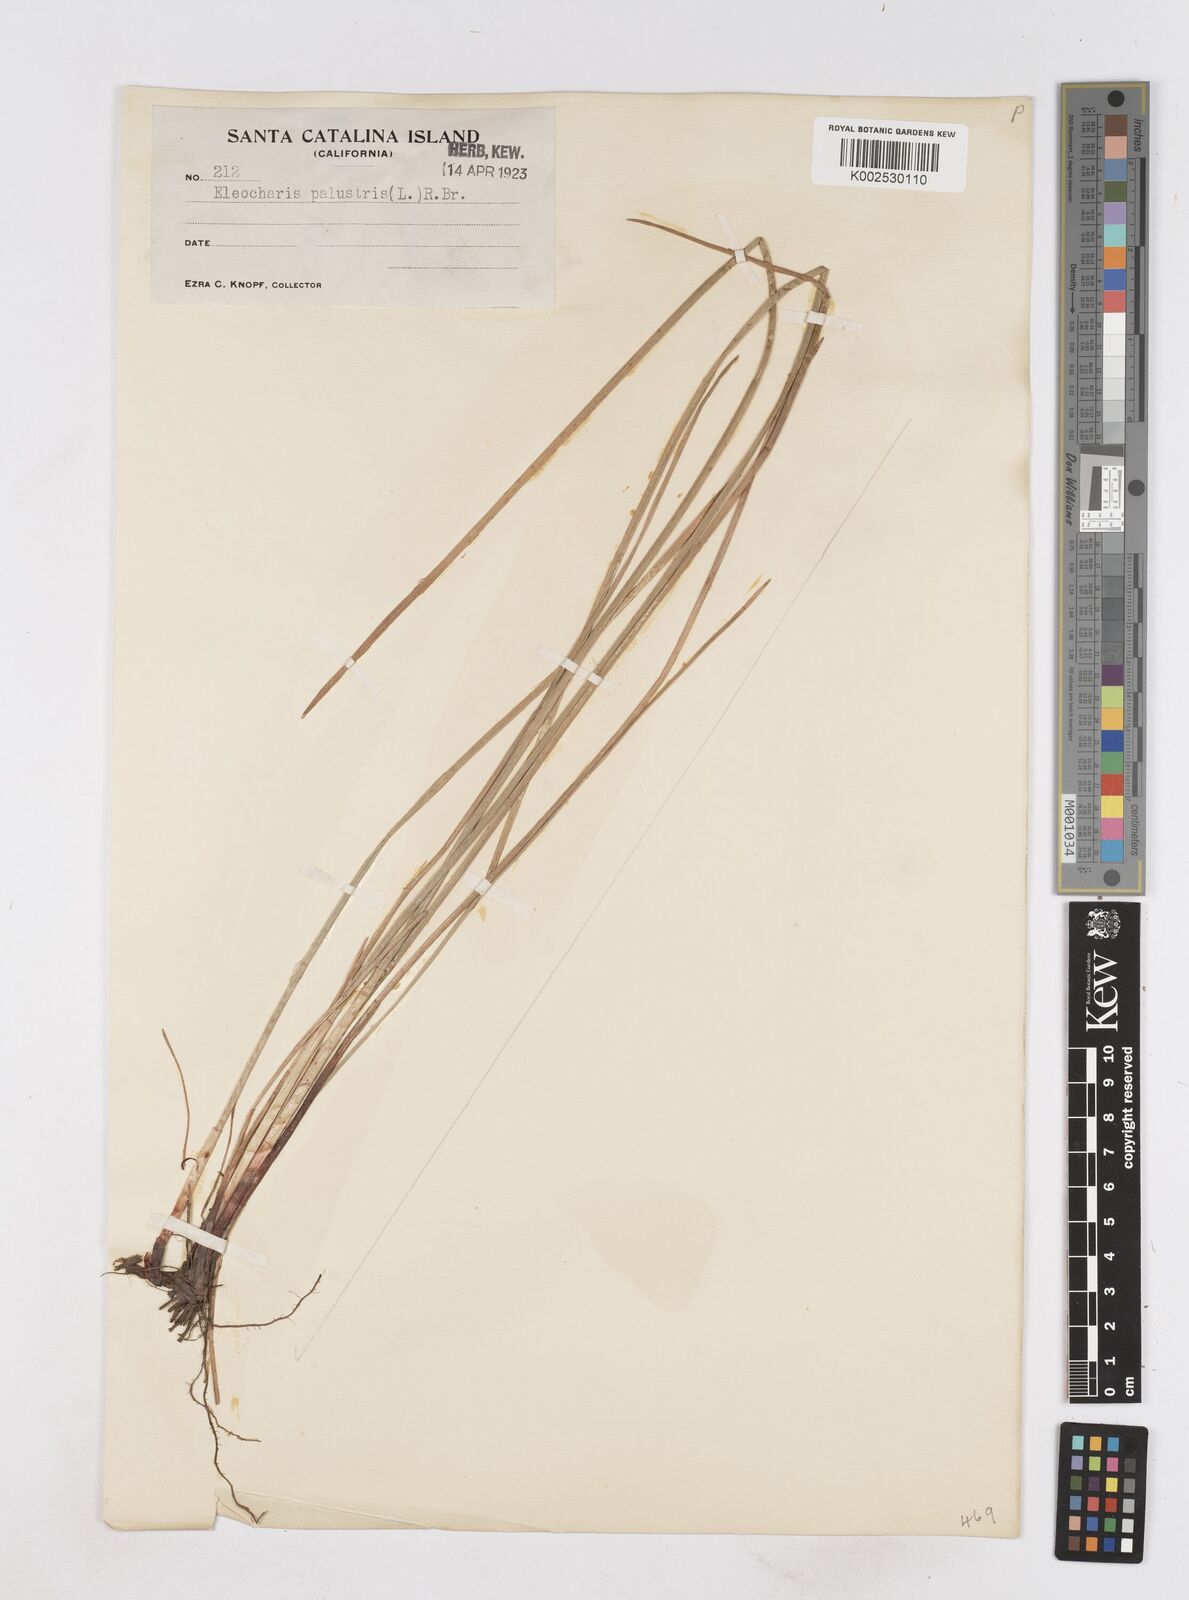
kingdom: Plantae
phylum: Tracheophyta
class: Liliopsida
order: Poales
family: Cyperaceae
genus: Eleocharis
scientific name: Eleocharis palustris
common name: Common spike-rush
